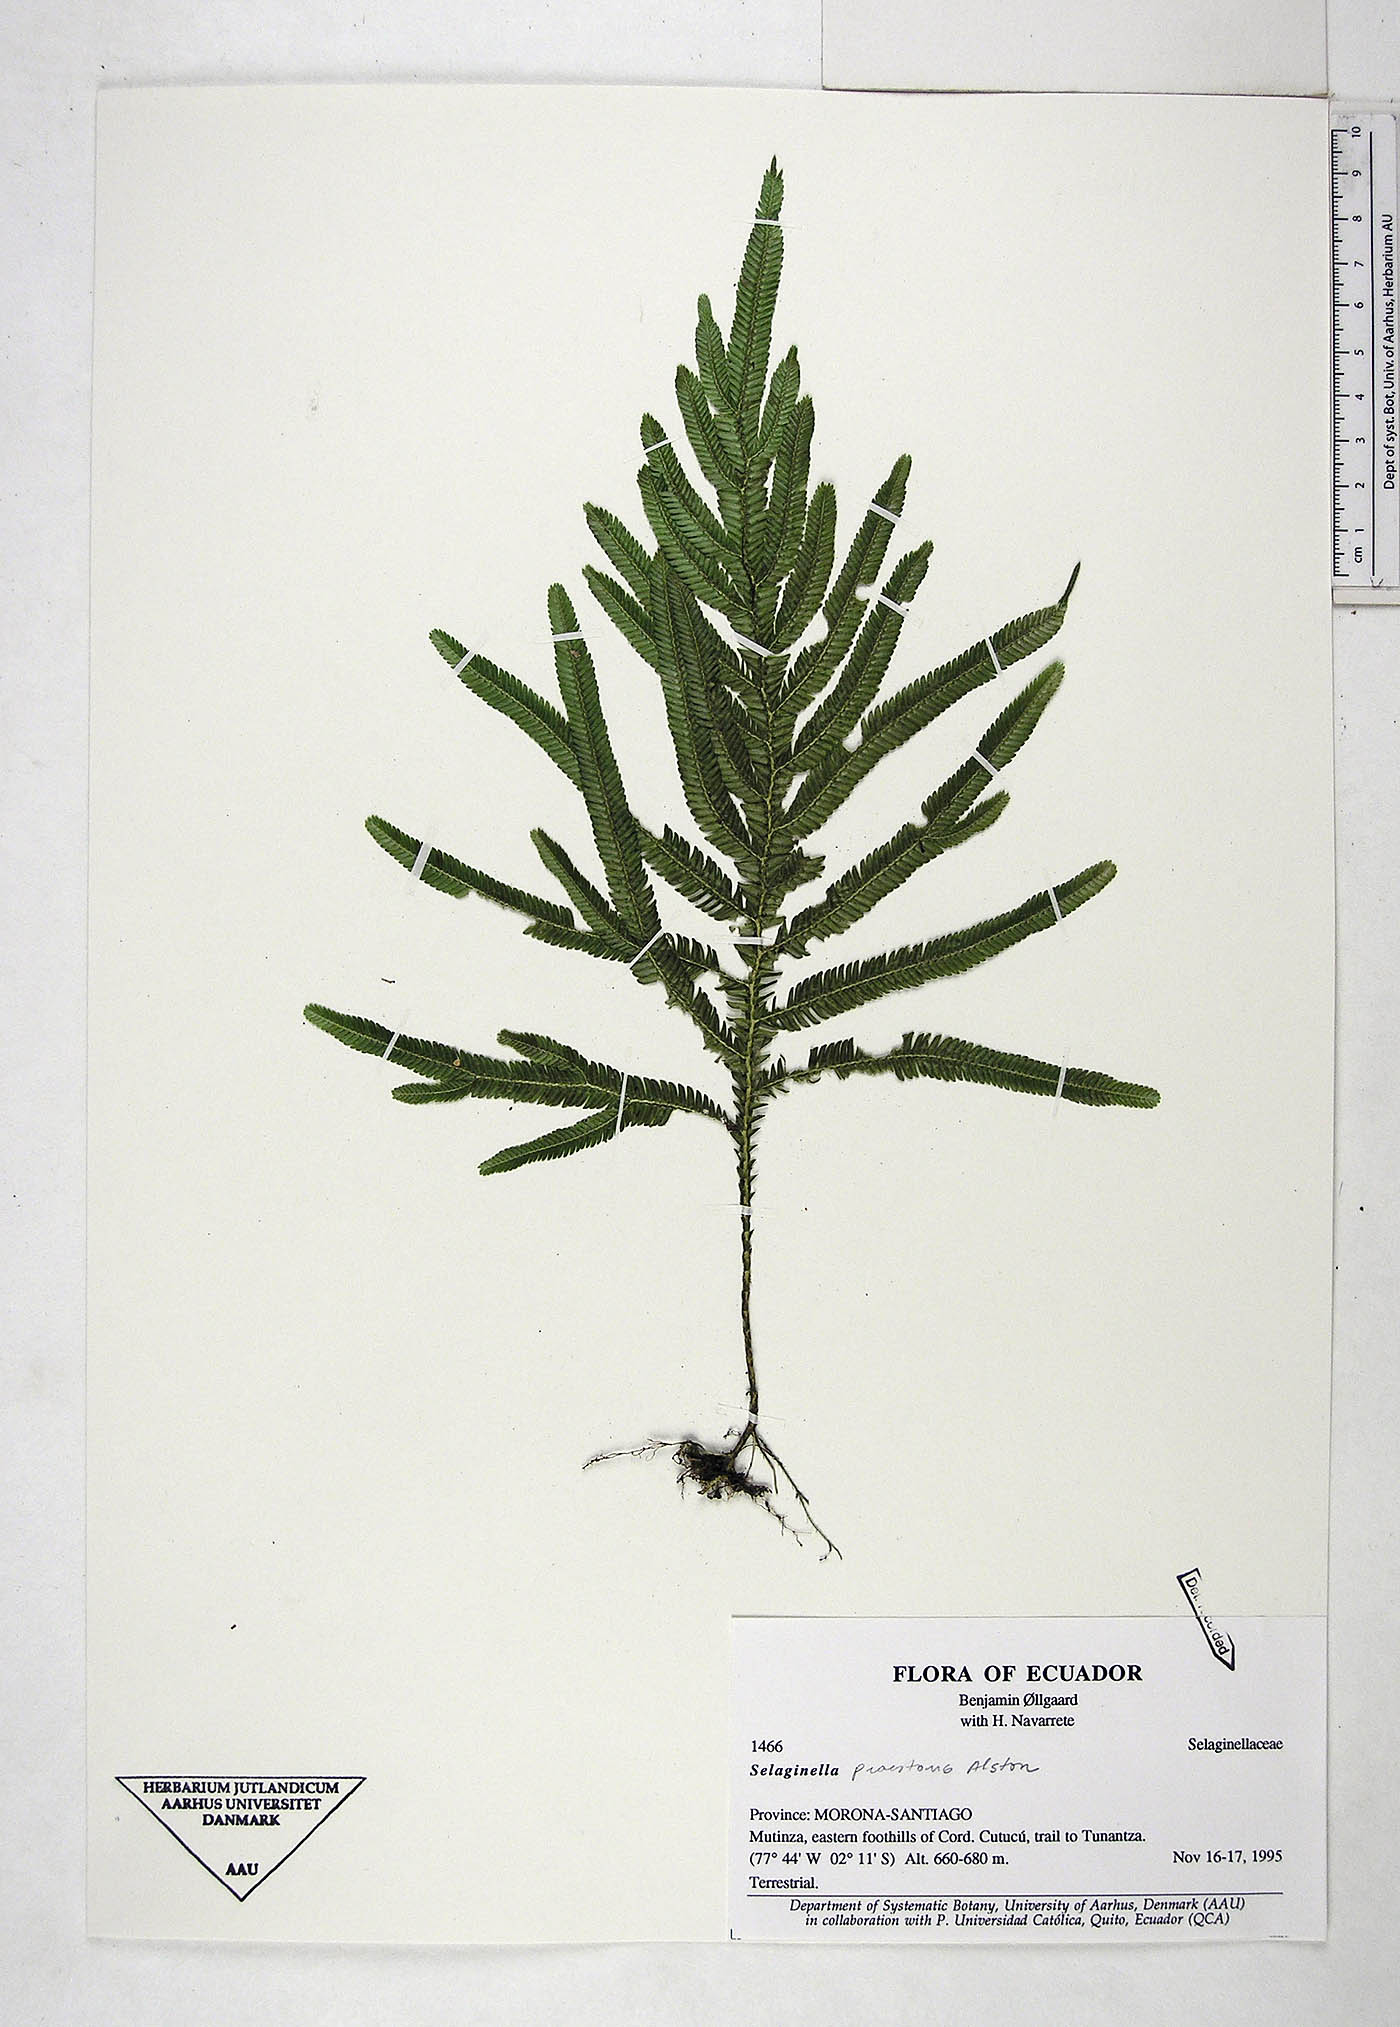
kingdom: Plantae
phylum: Tracheophyta
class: Lycopodiopsida
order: Selaginellales
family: Selaginellaceae
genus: Selaginella
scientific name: Selaginella praestans
